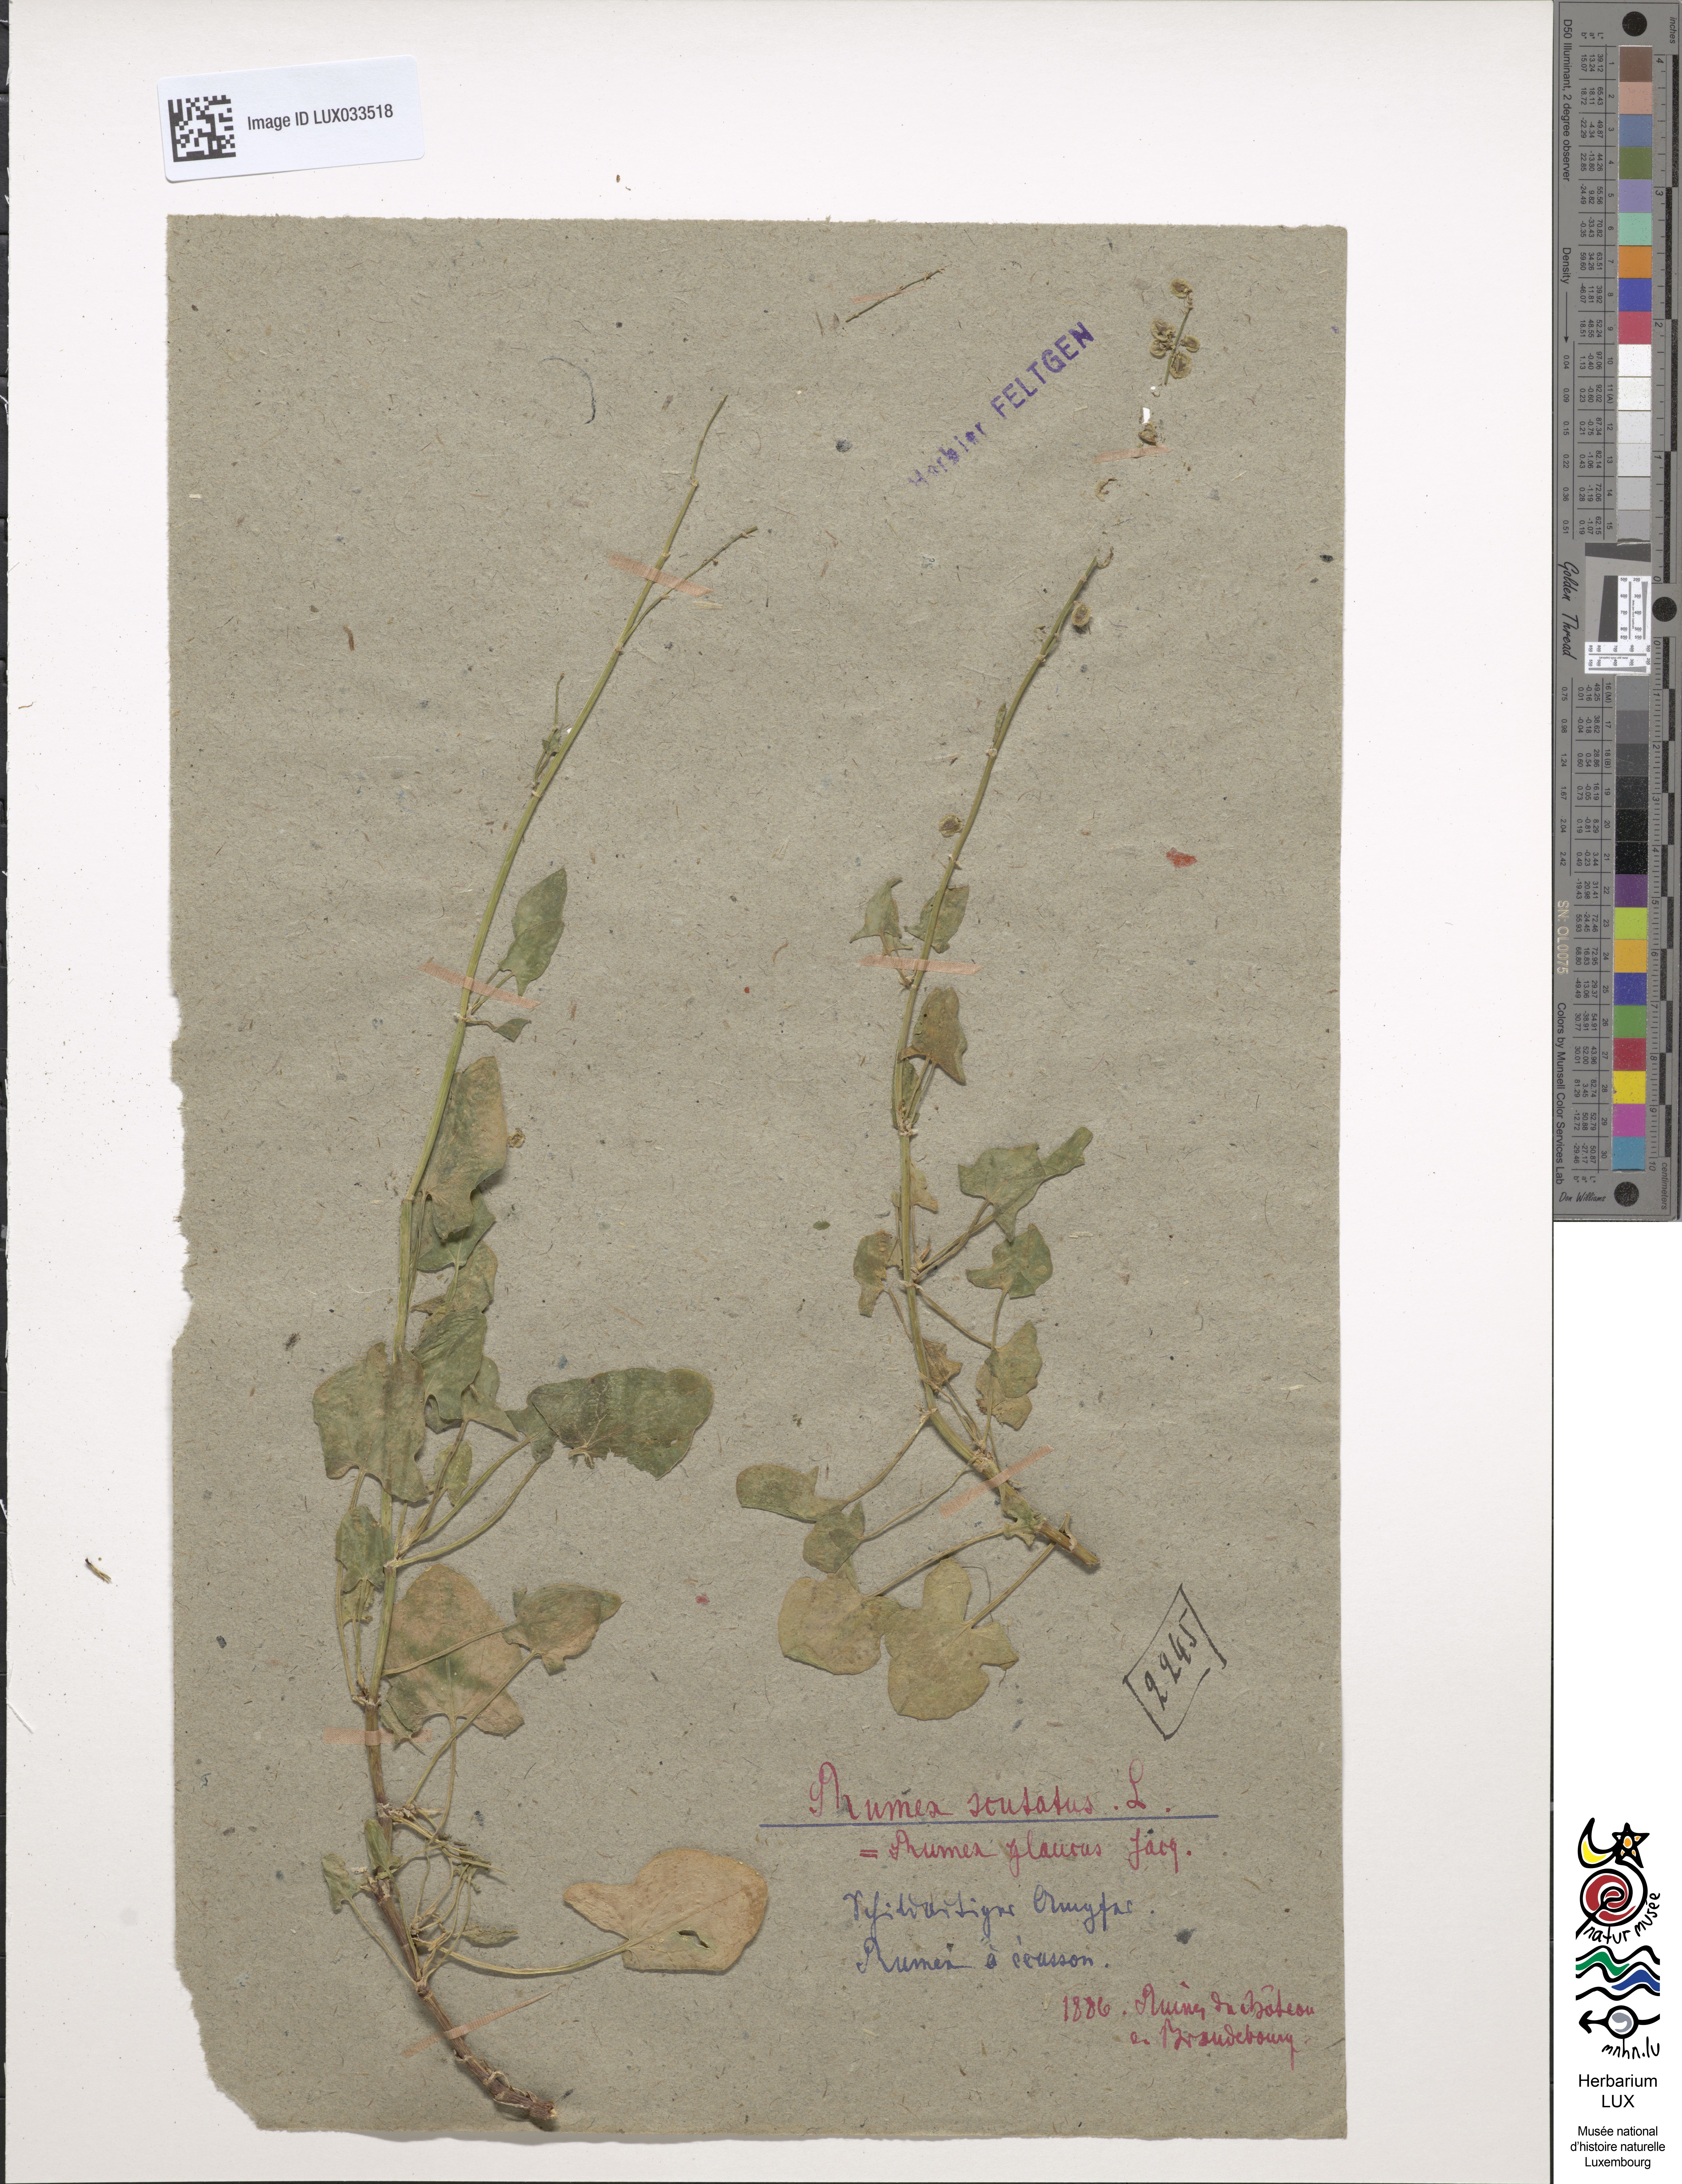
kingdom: Plantae
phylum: Tracheophyta
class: Magnoliopsida
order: Caryophyllales
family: Polygonaceae
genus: Rumex
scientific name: Rumex scutatus
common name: French sorrel
